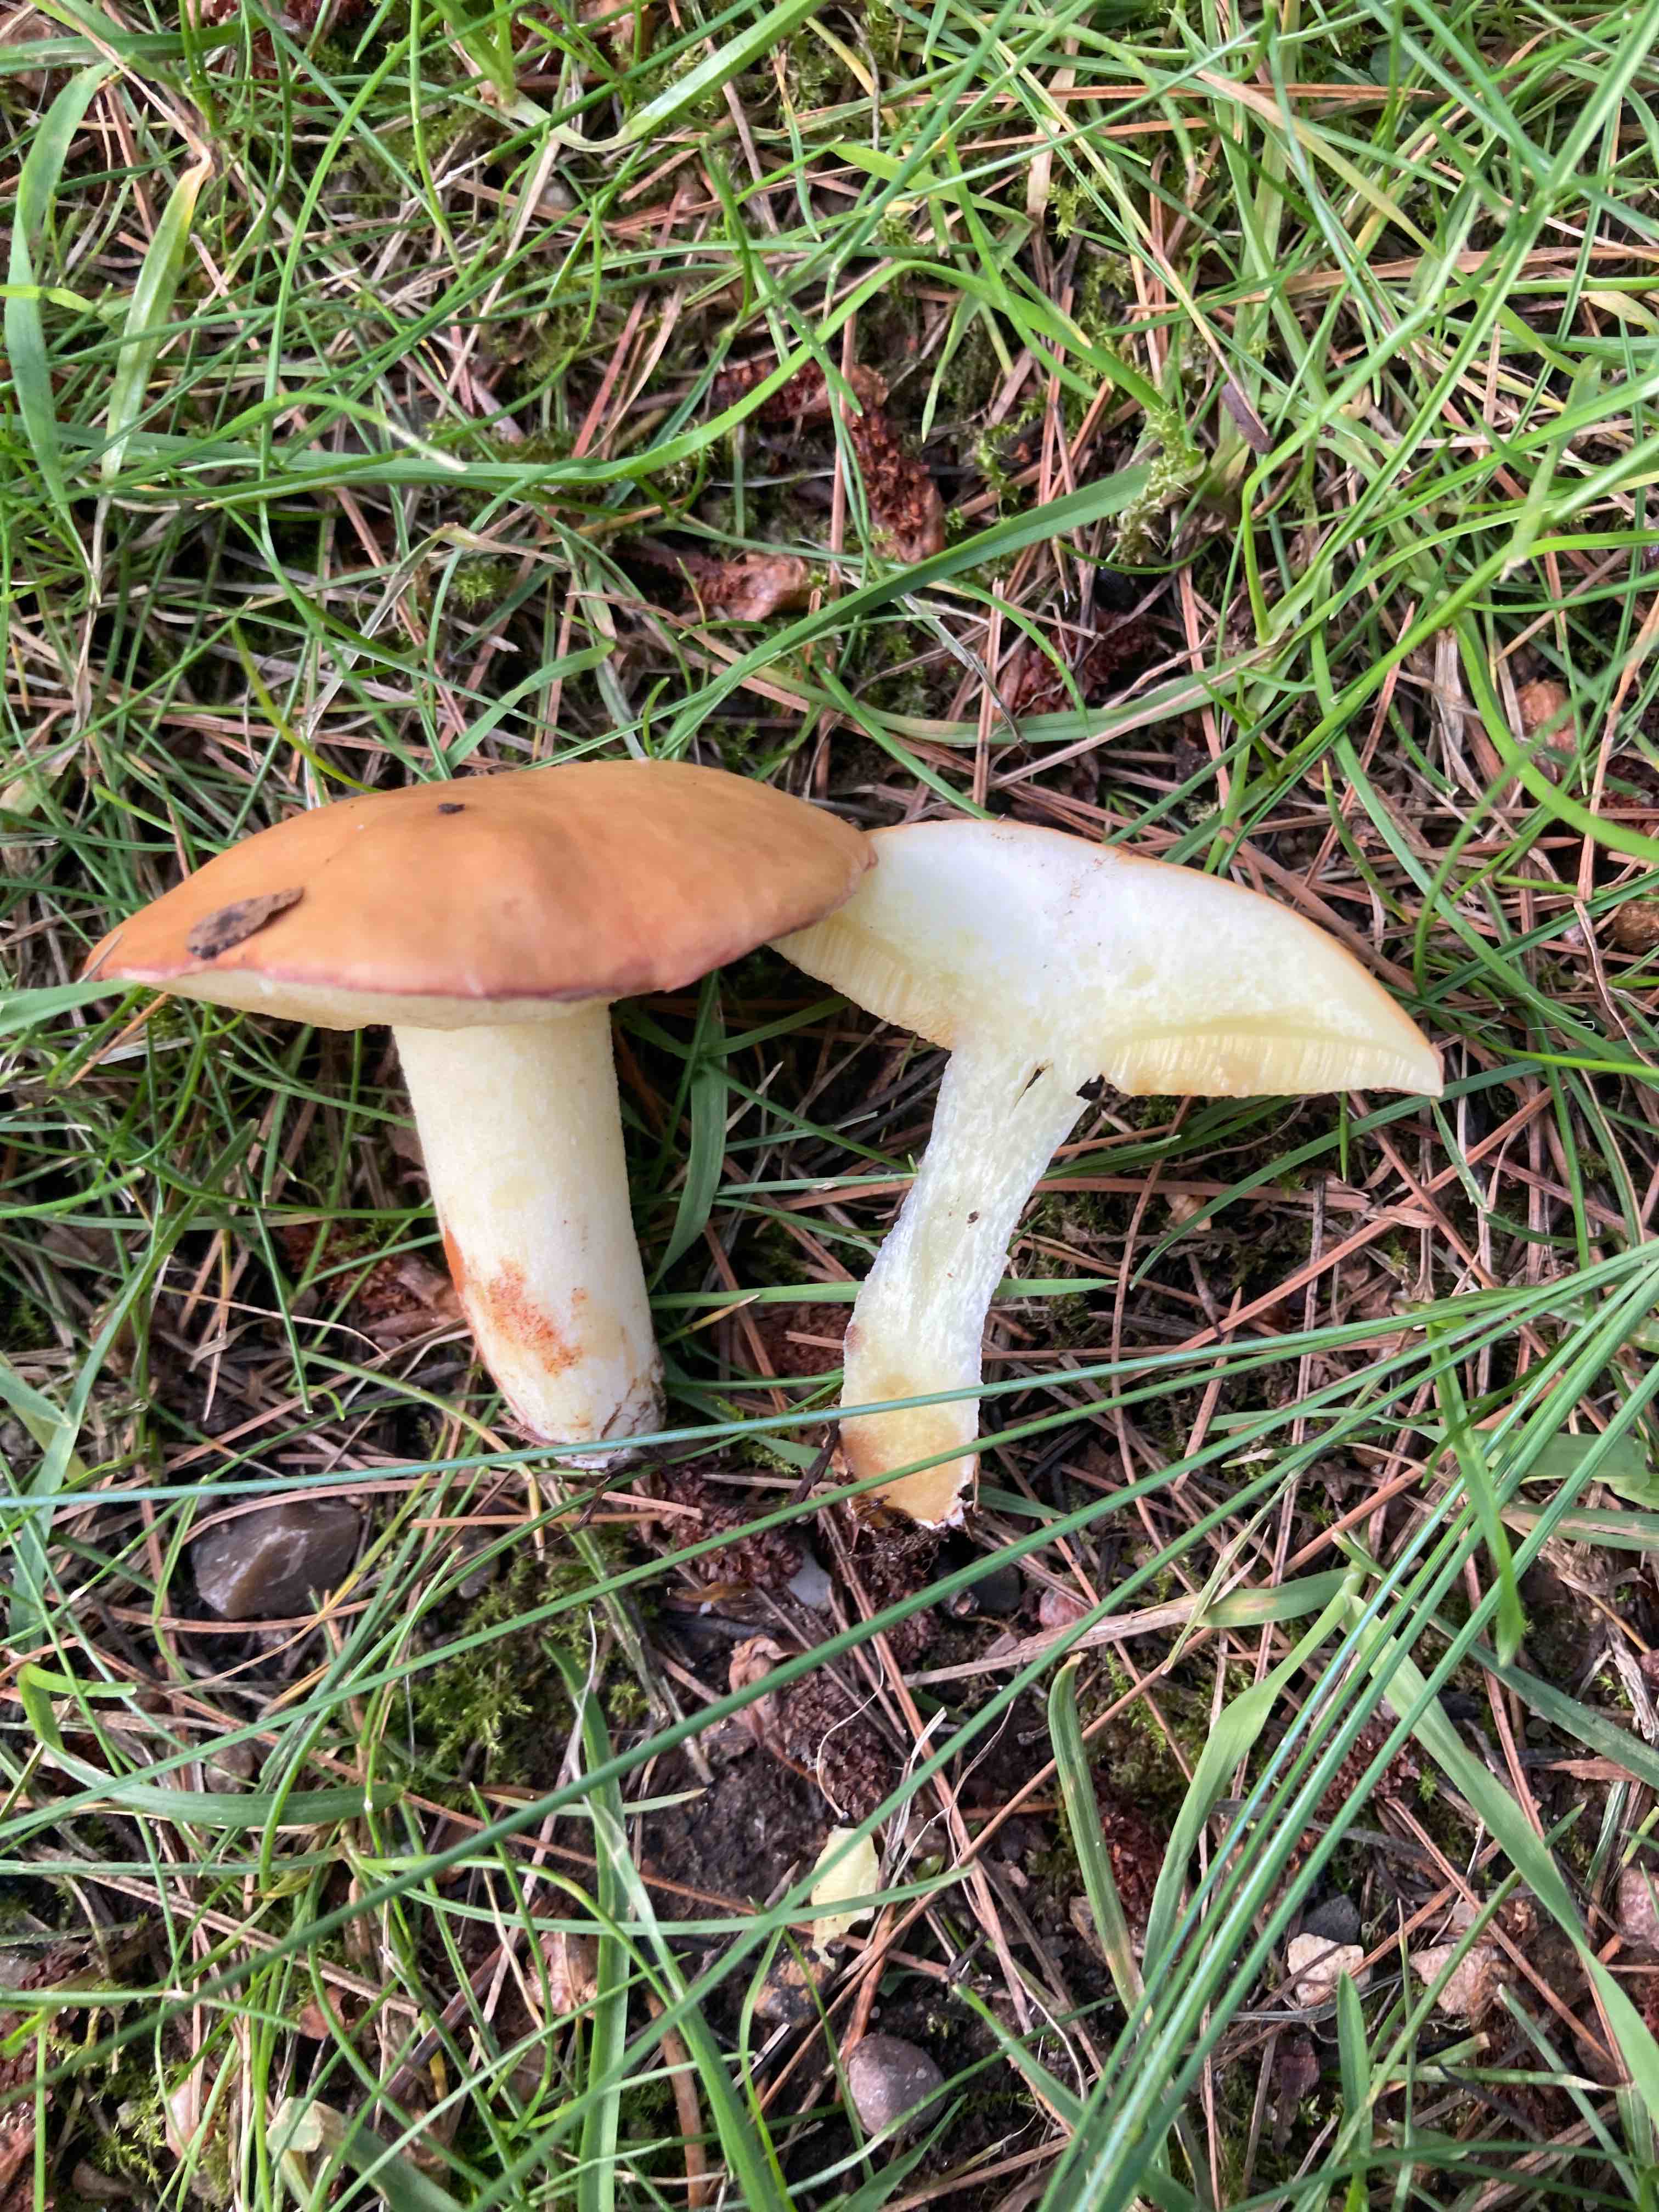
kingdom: Fungi
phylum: Basidiomycota
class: Agaricomycetes
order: Boletales
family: Suillaceae
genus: Suillus
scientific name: Suillus granulatus
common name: kornet slimrørhat
